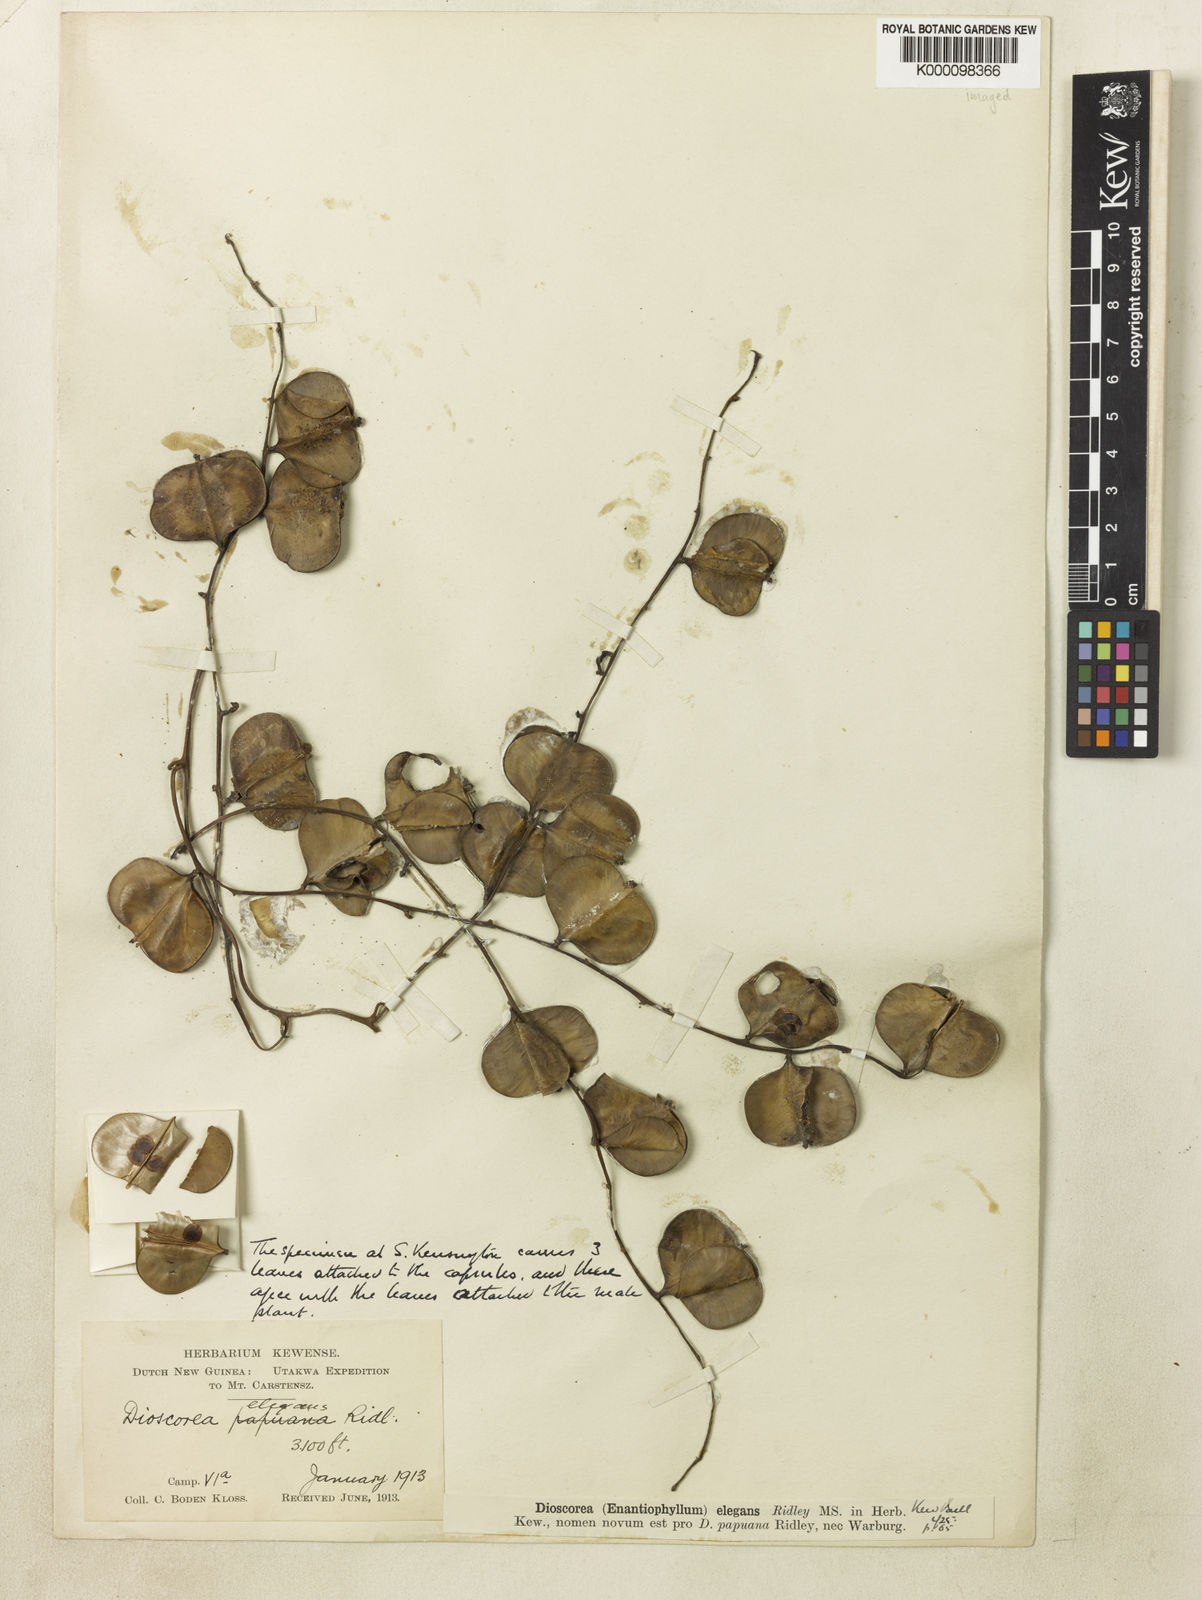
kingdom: Plantae
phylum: Tracheophyta
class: Liliopsida
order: Dioscoreales
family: Dioscoreaceae
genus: Dioscorea
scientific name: Dioscorea elegans
